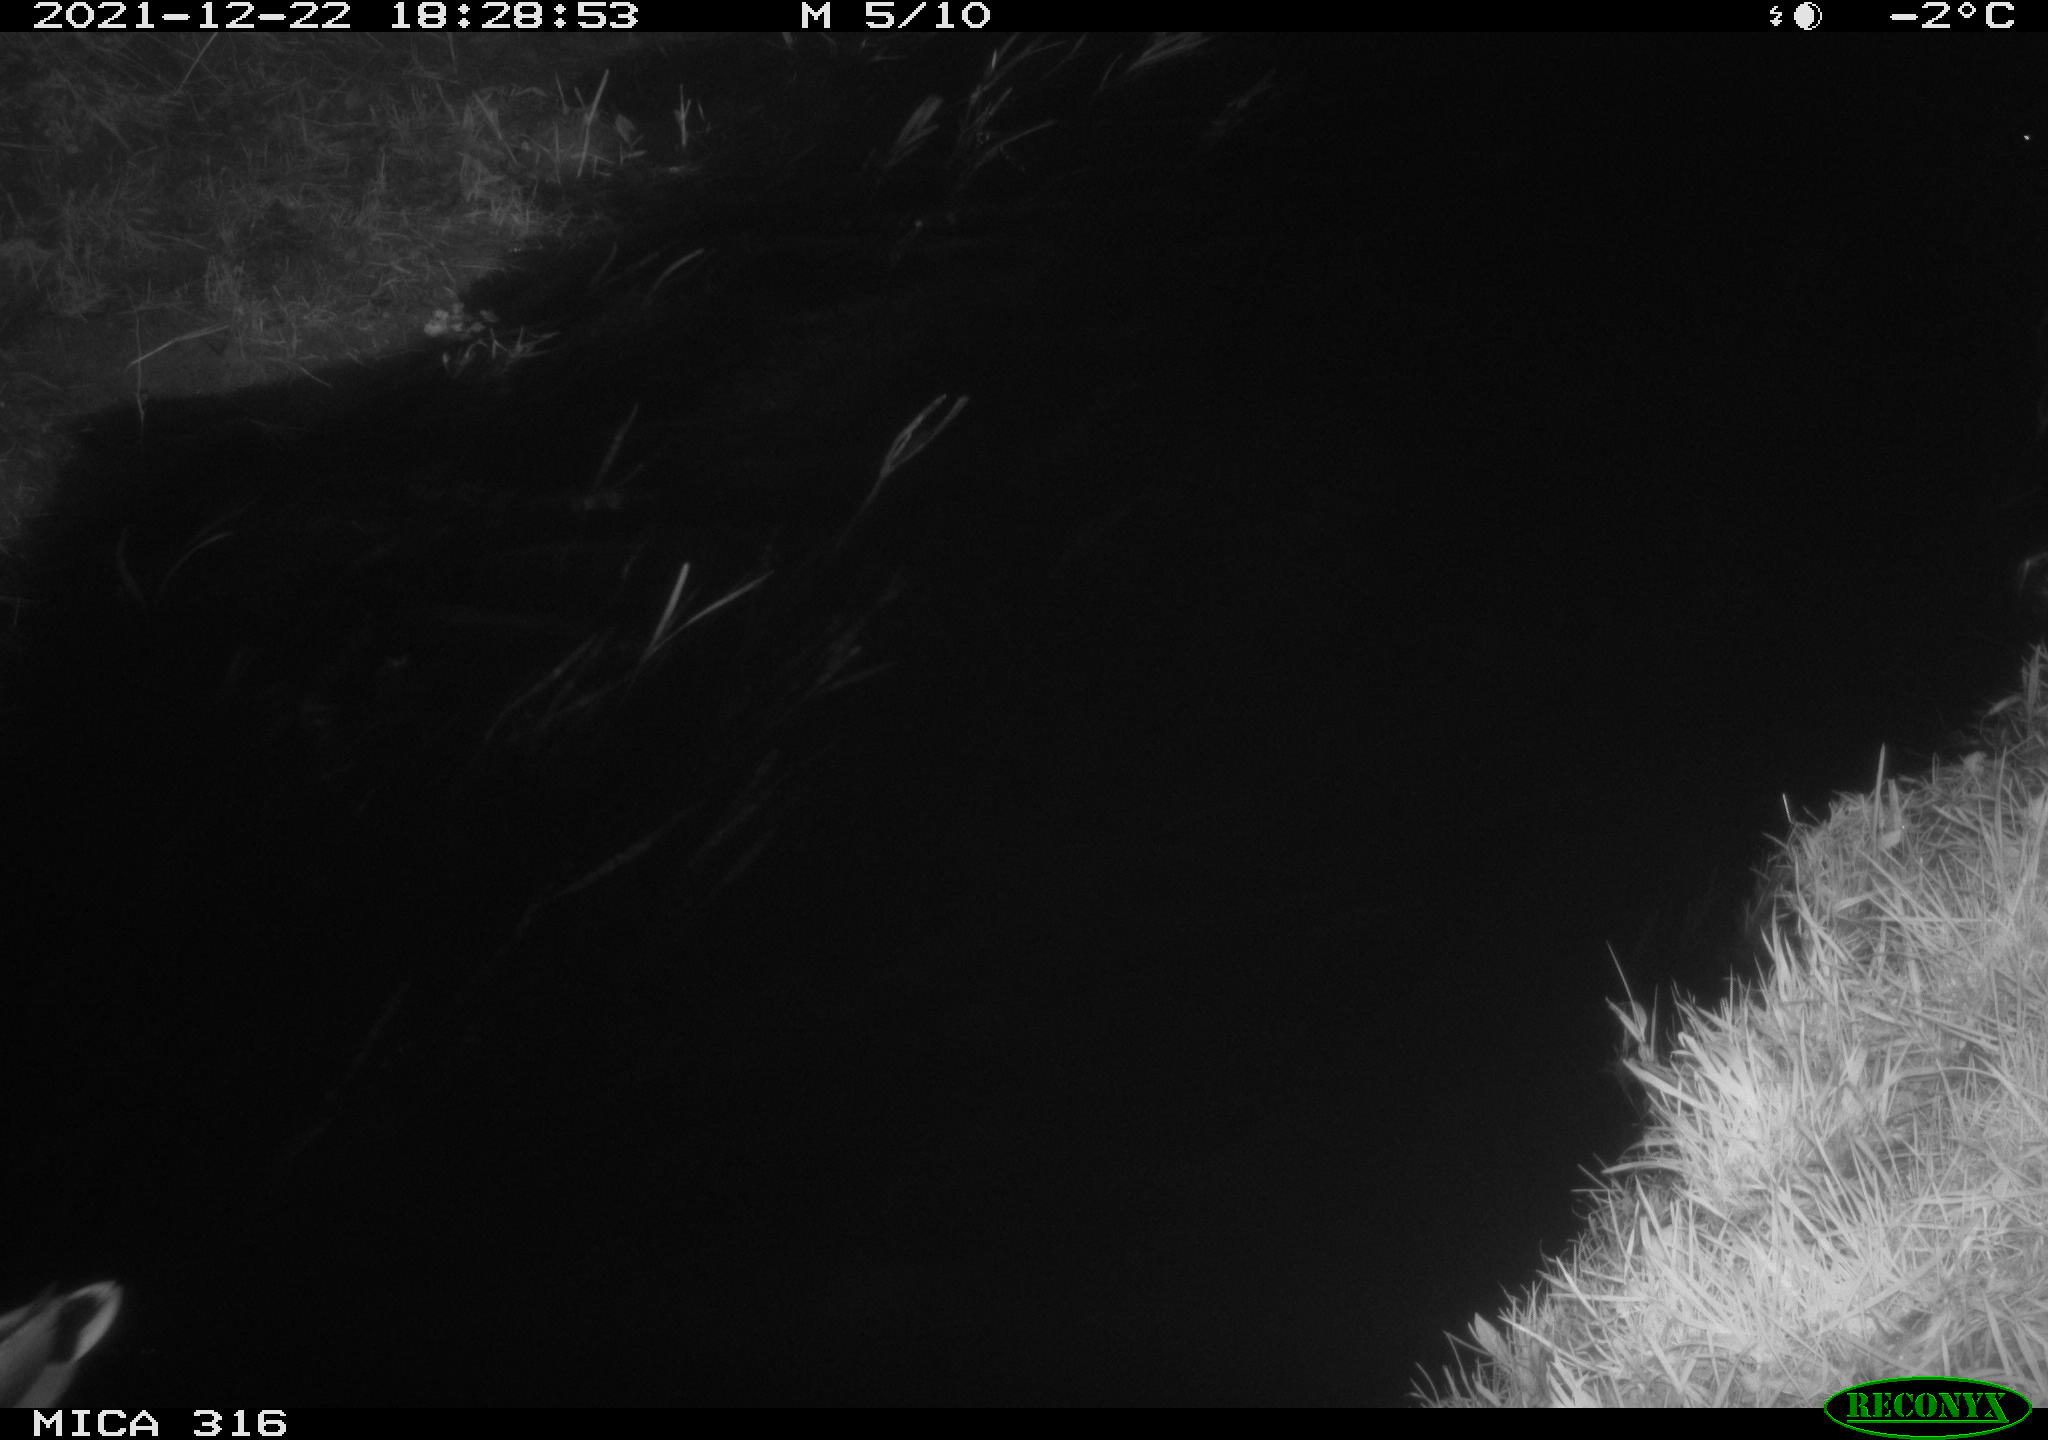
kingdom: Animalia
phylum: Chordata
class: Aves
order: Anseriformes
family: Anatidae
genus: Anas
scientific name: Anas
